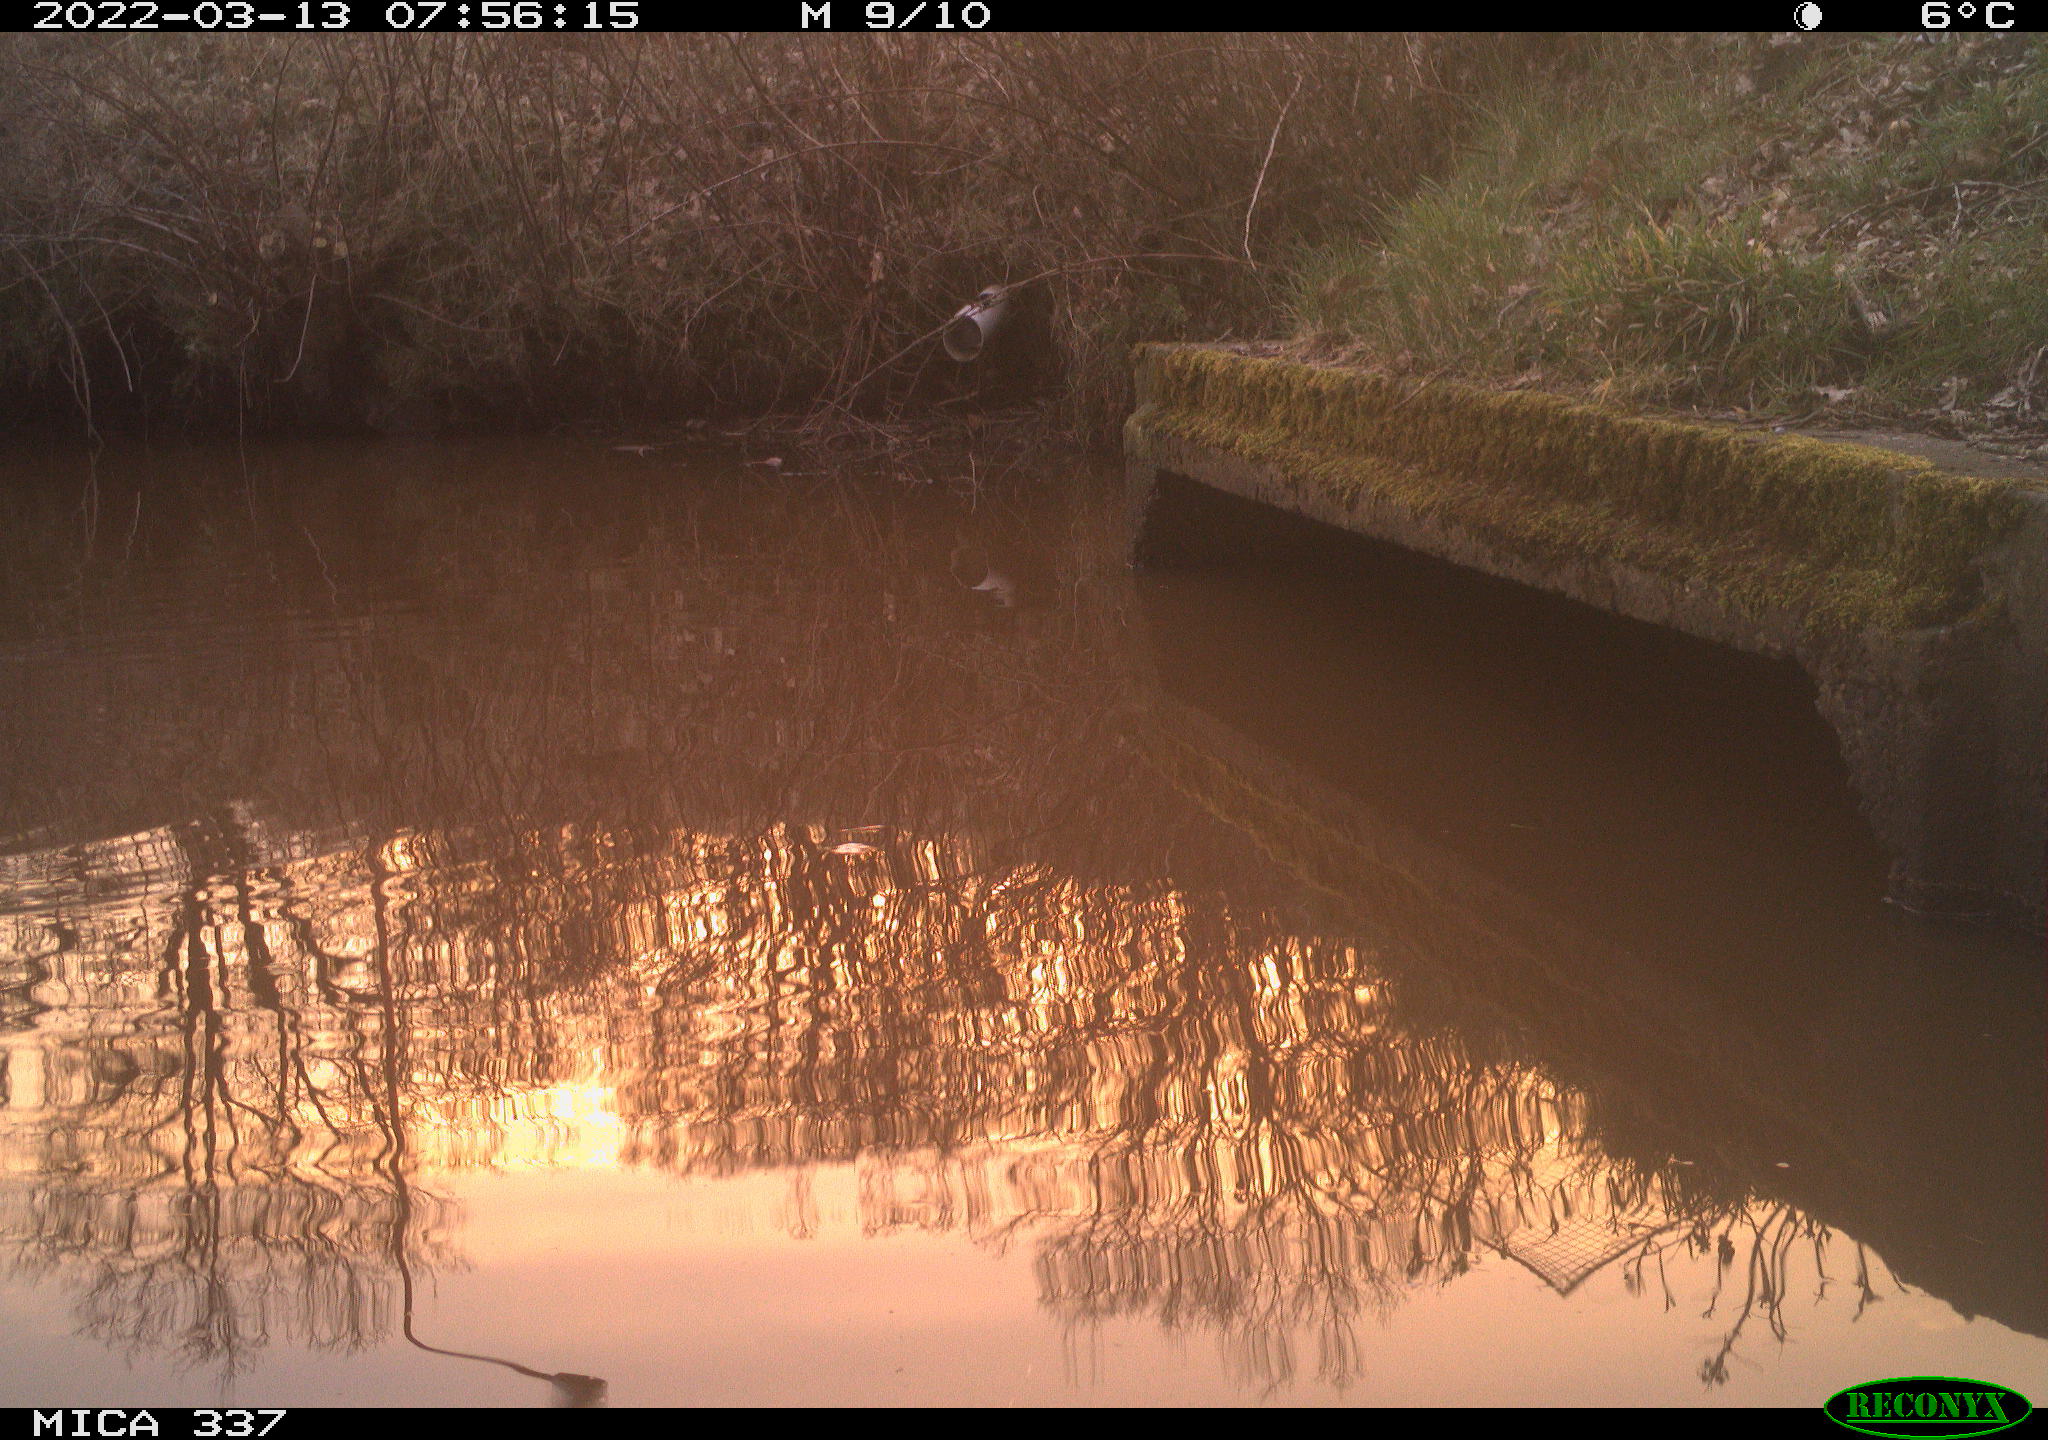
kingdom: Animalia
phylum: Chordata
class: Aves
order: Gruiformes
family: Rallidae
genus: Fulica
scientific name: Fulica atra
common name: Eurasian coot
